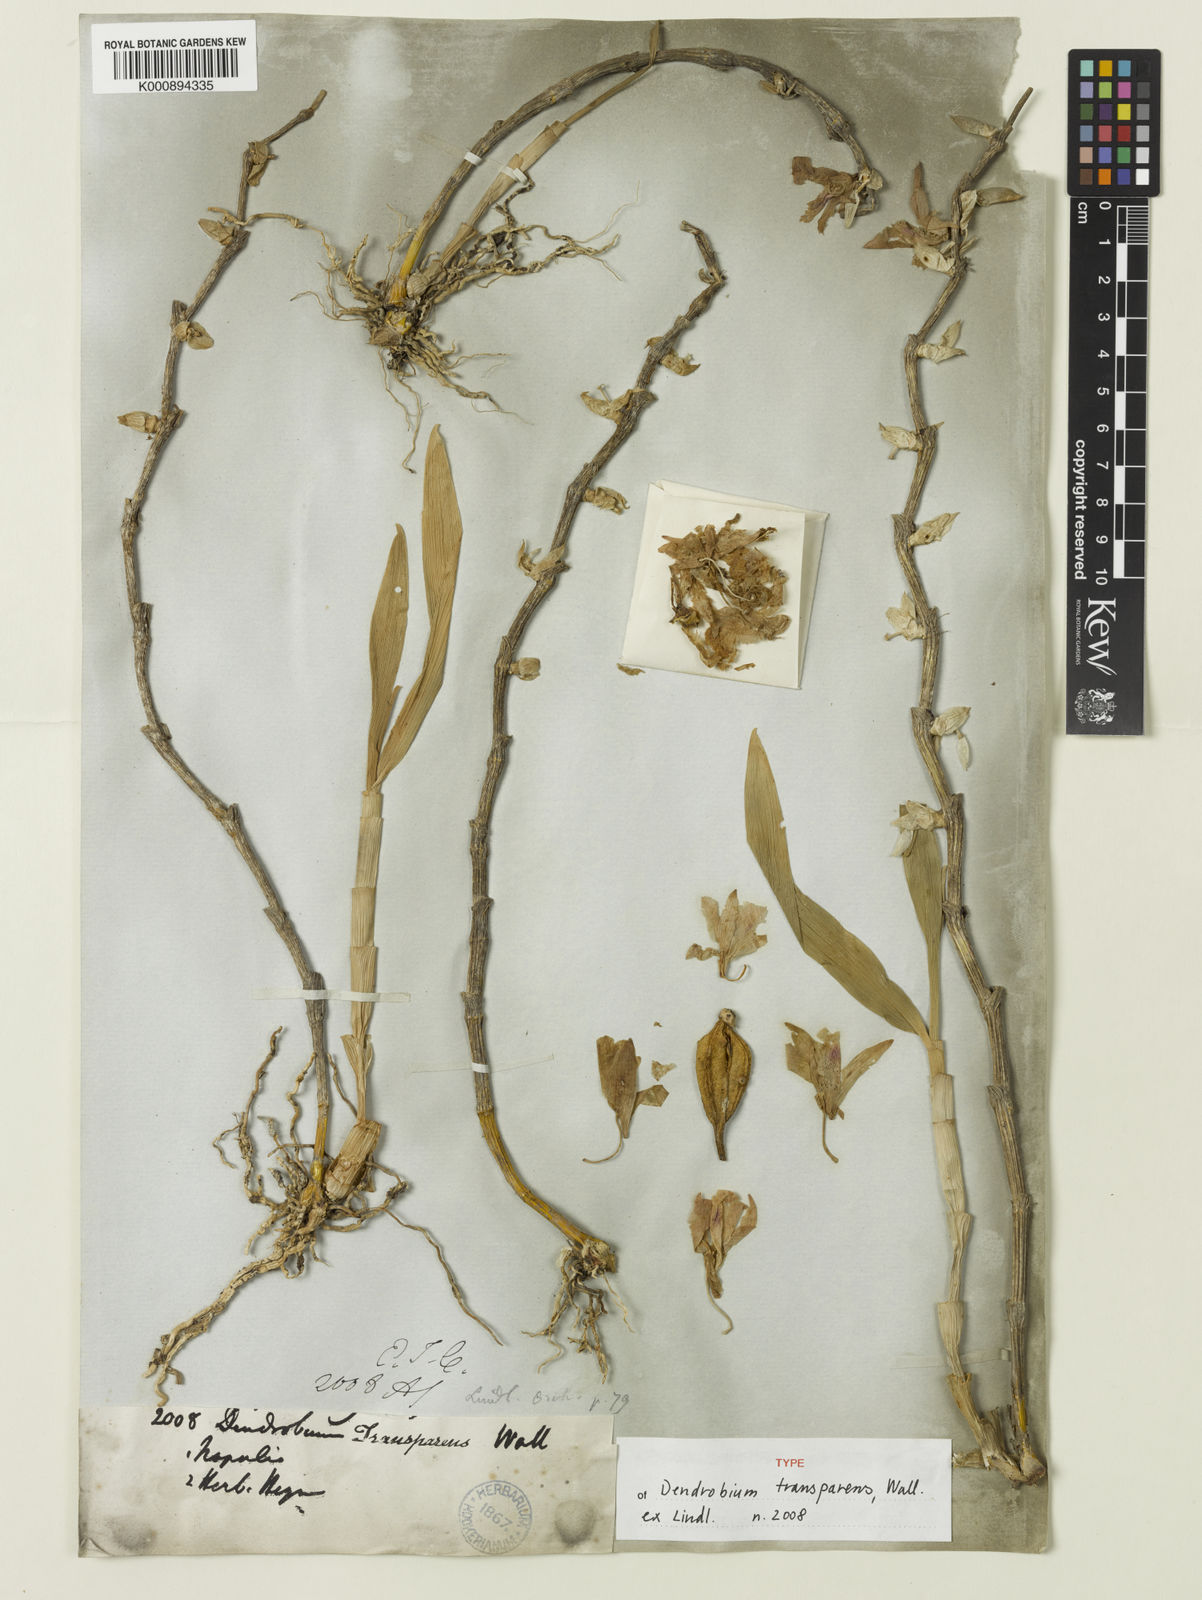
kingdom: Plantae
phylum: Tracheophyta
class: Liliopsida
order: Asparagales
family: Orchidaceae
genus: Dendrobium
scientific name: Dendrobium transparens
